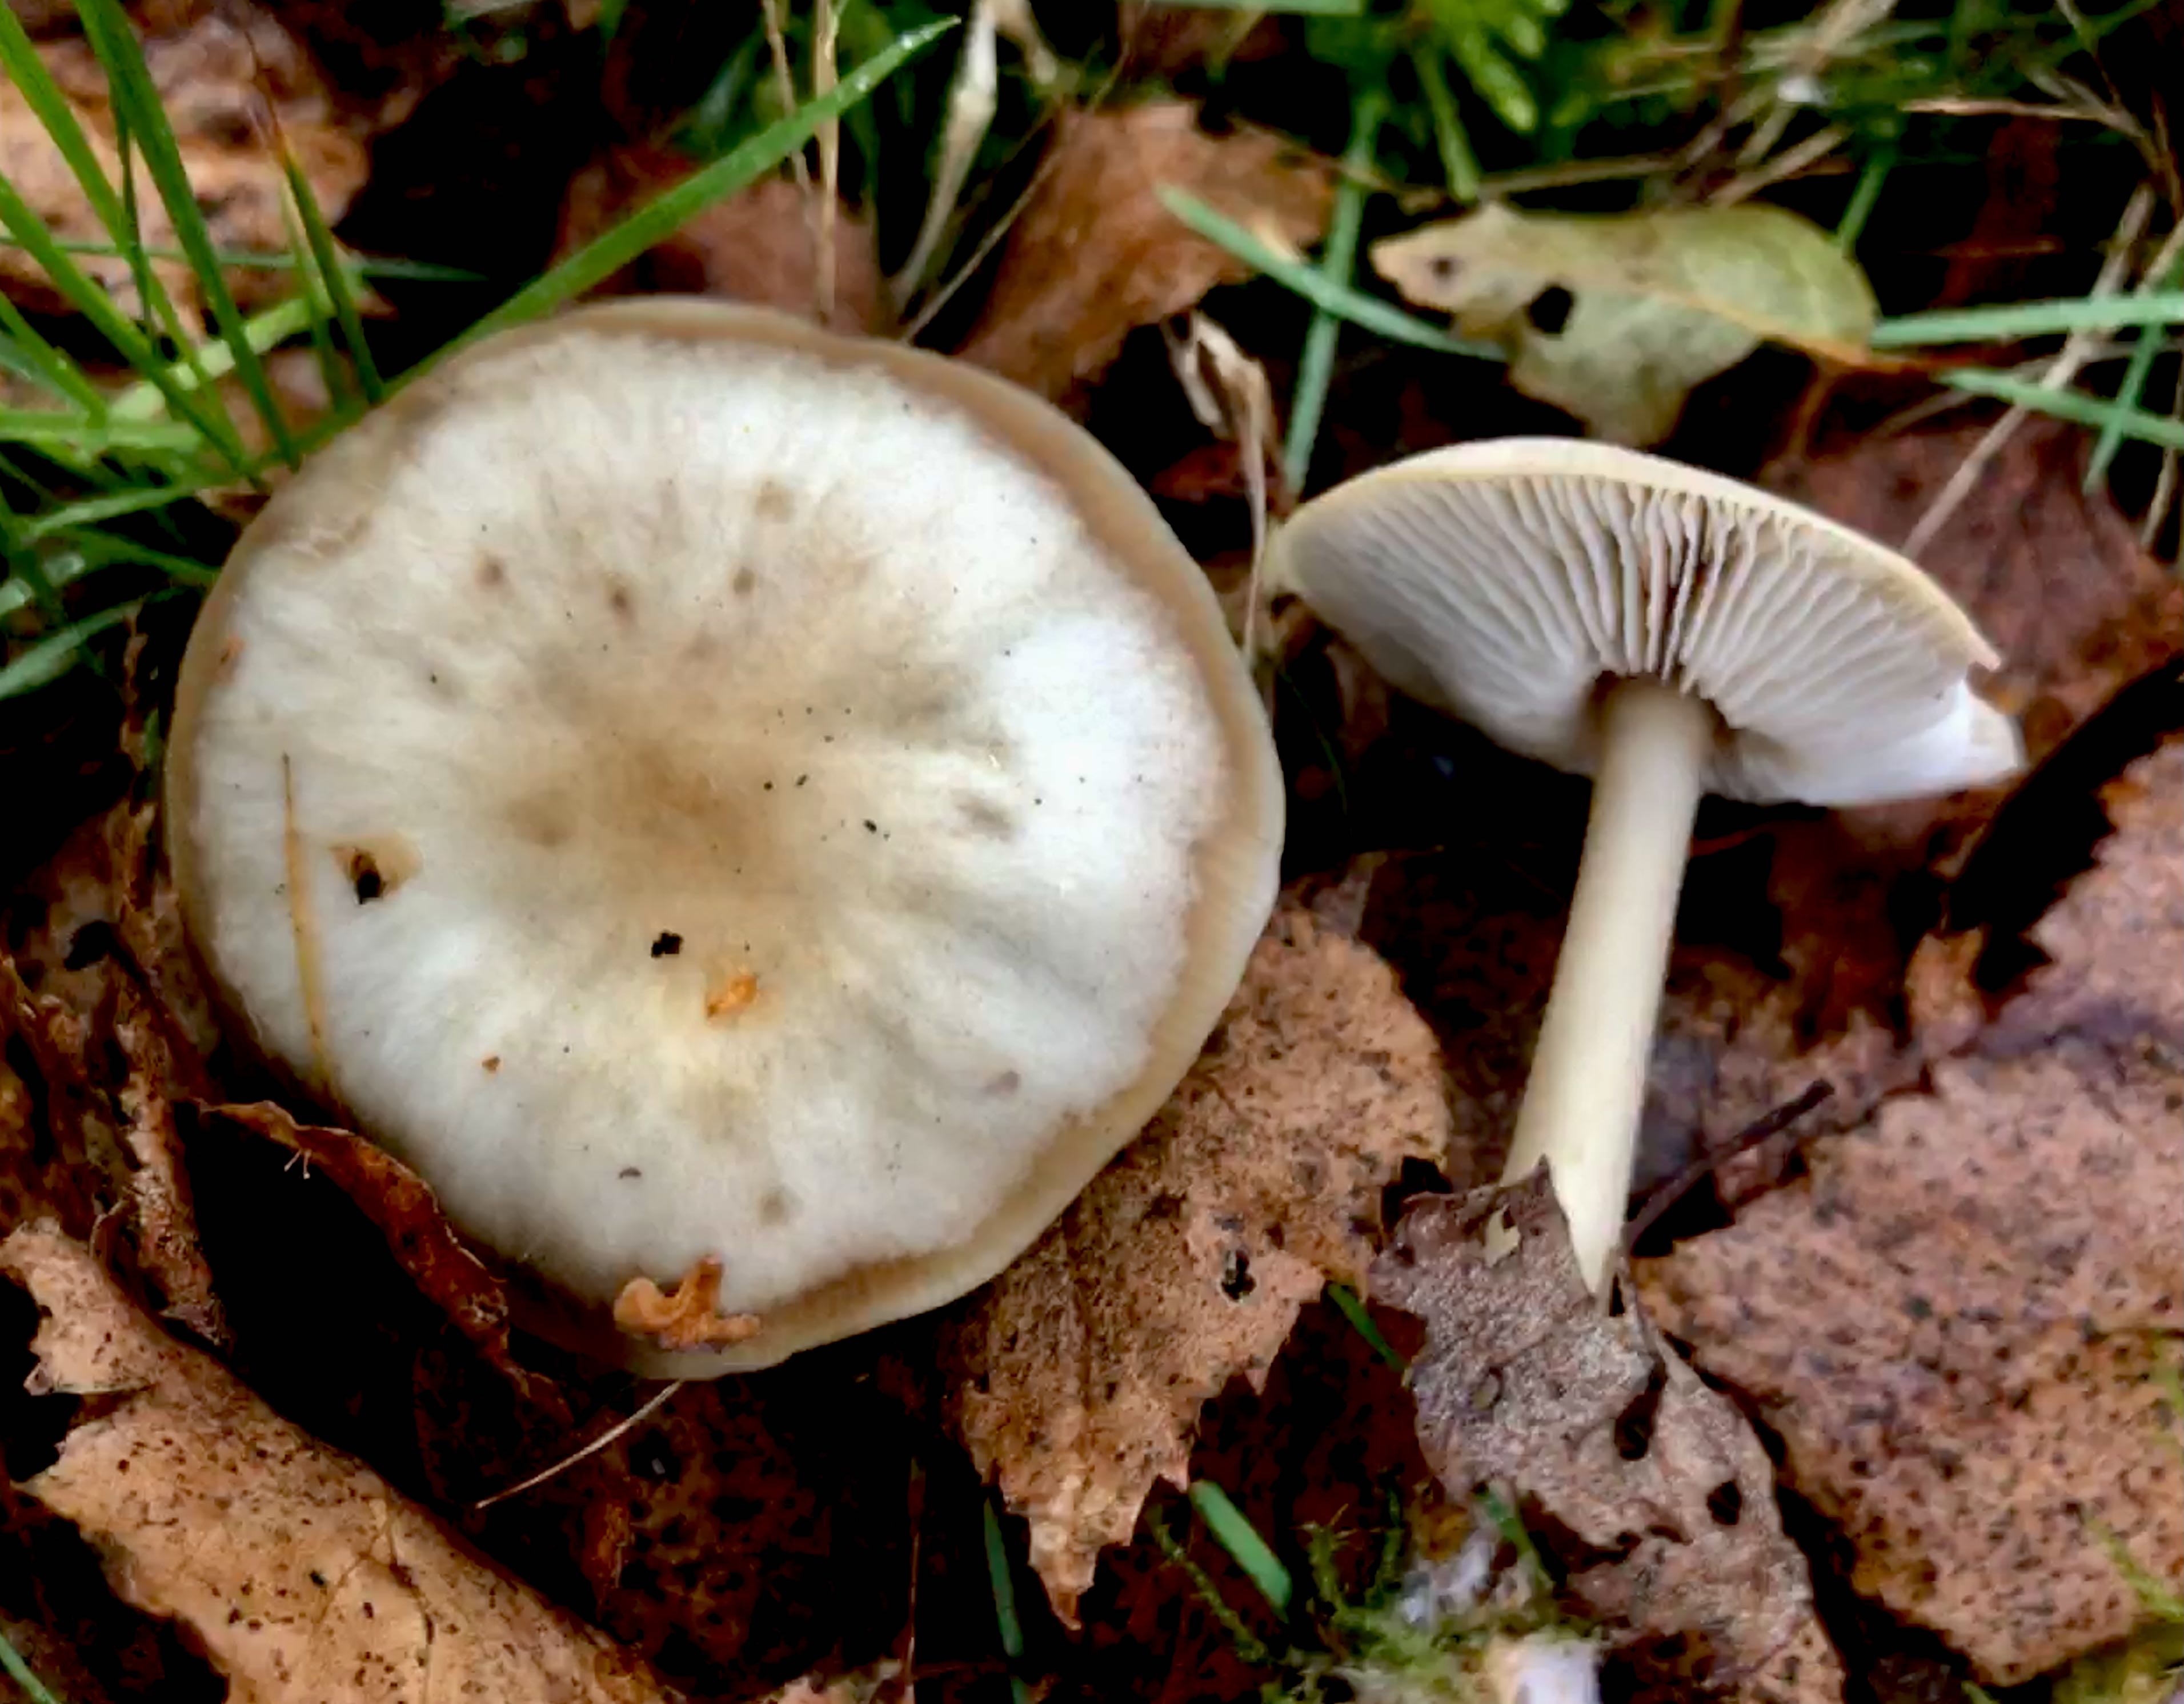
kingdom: Fungi
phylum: Basidiomycota
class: Agaricomycetes
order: Agaricales
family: Omphalotaceae
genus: Rhodocollybia
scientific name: Rhodocollybia asema
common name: horngrå fladhat
